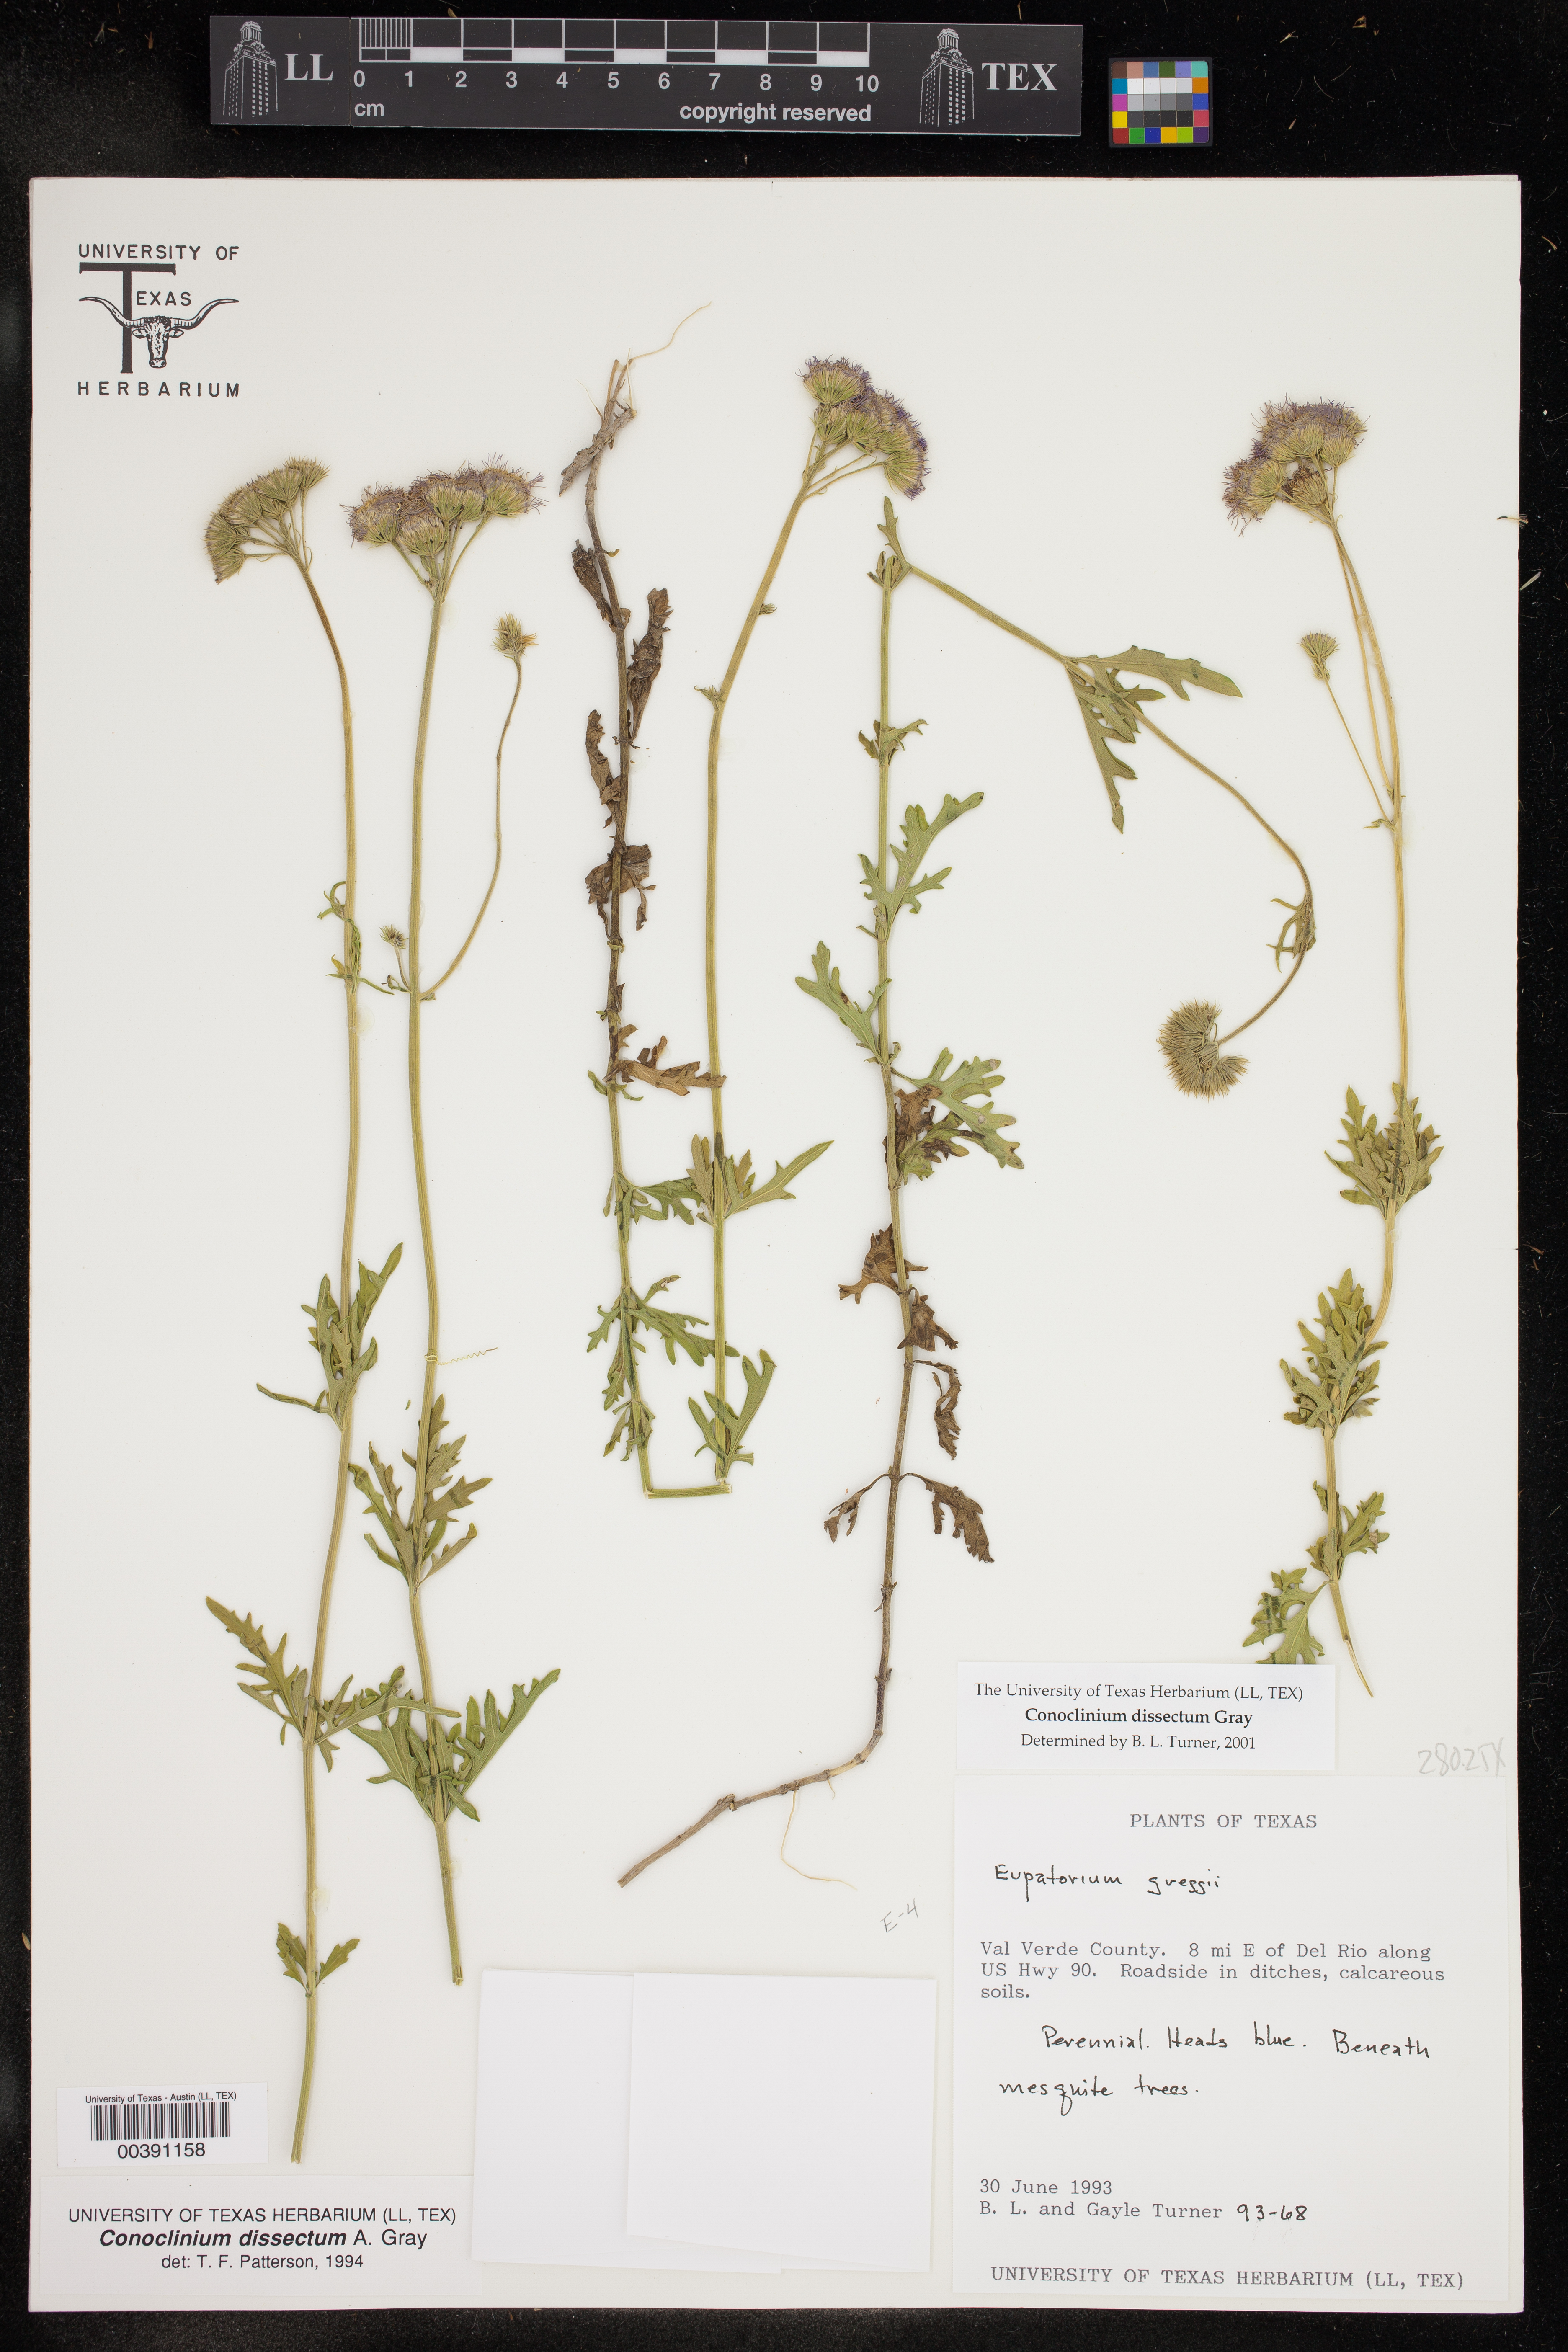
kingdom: Plantae
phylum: Tracheophyta
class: Magnoliopsida
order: Asterales
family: Asteraceae
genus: Conoclinium
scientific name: Conoclinium dissectum
